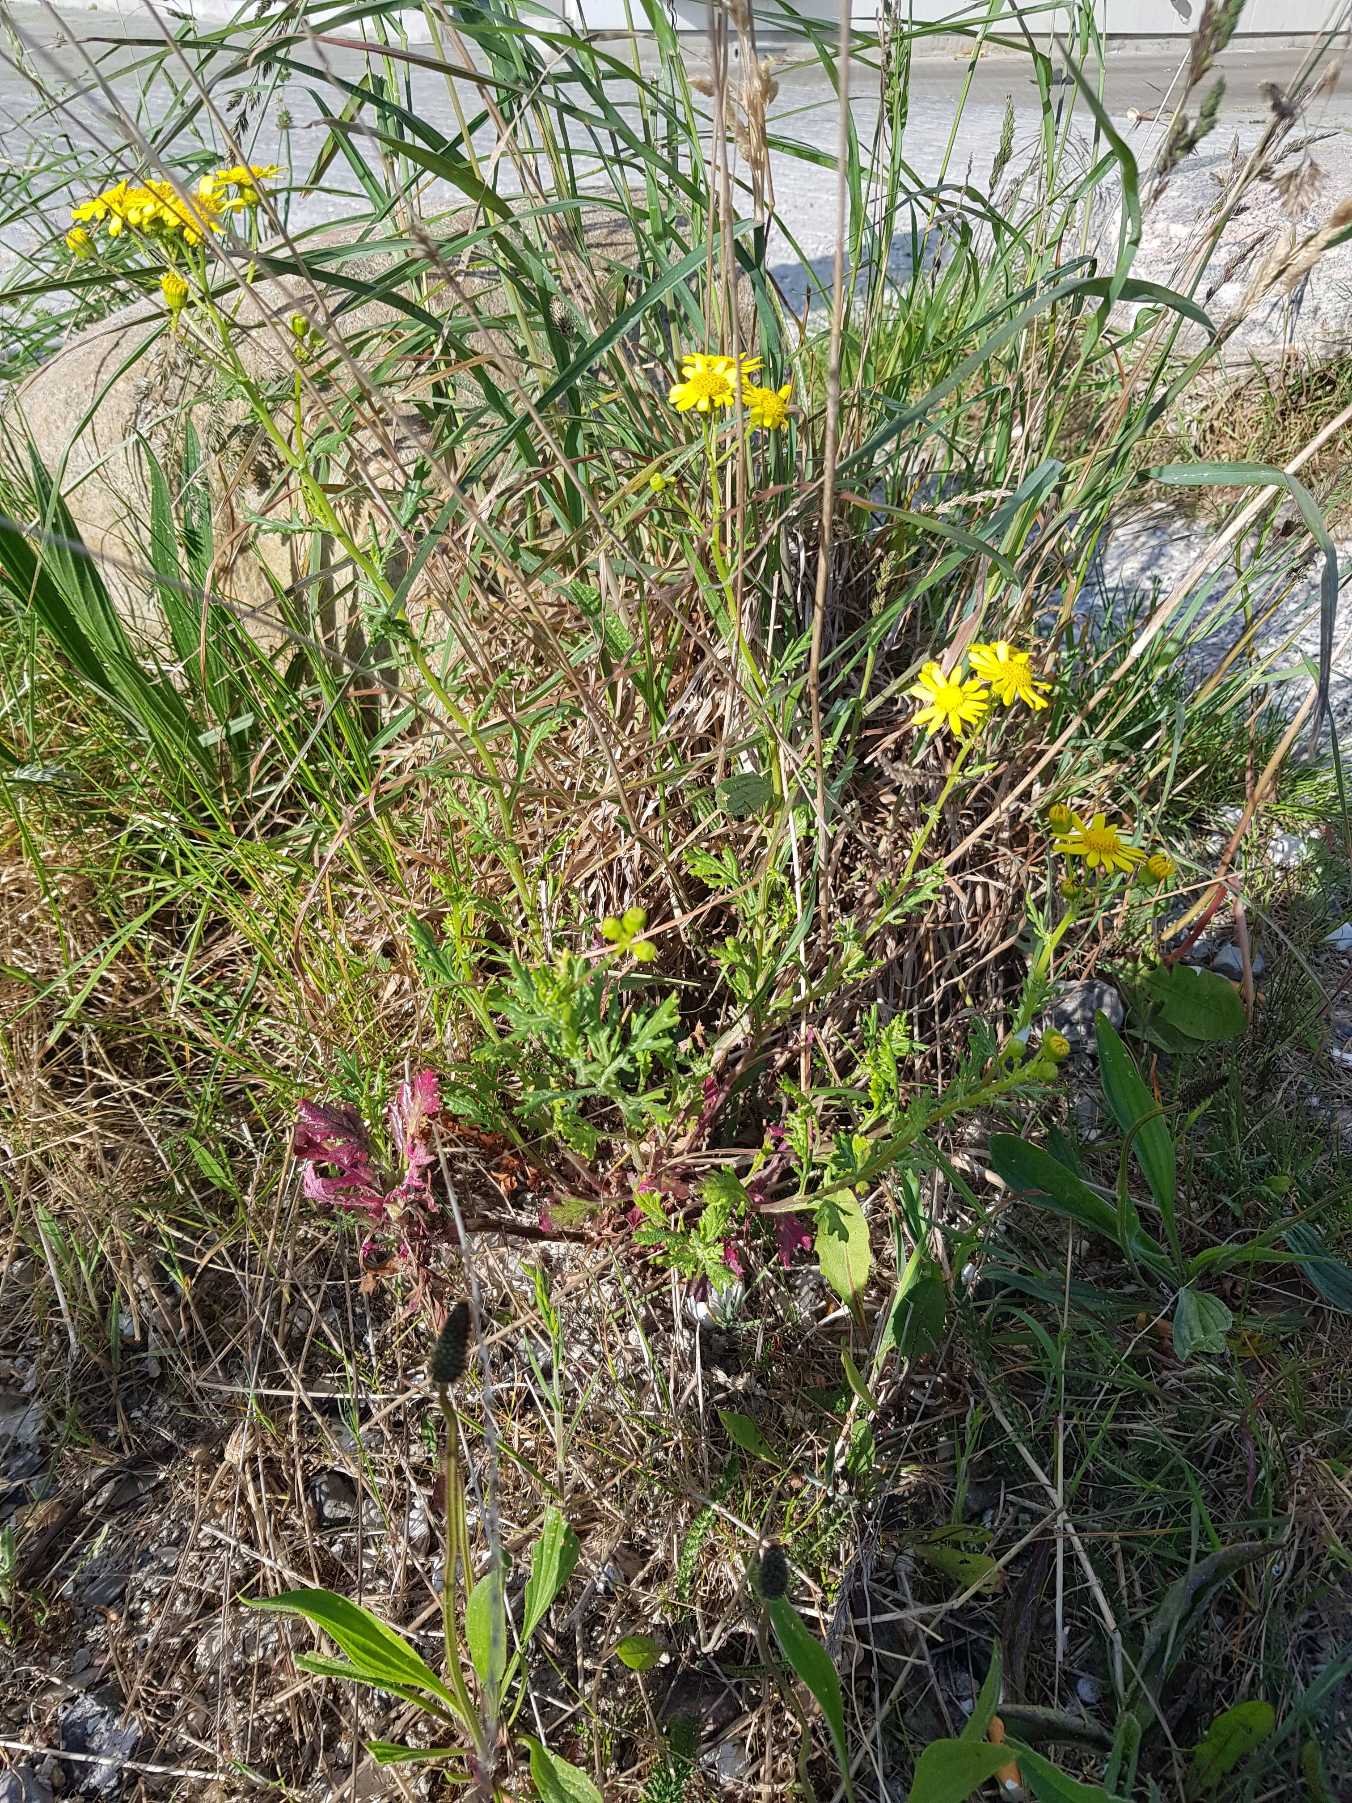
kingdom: Plantae
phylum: Tracheophyta
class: Magnoliopsida
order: Asterales
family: Asteraceae
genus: Senecio
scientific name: Senecio squalidus
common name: Italiensk brandbæger
